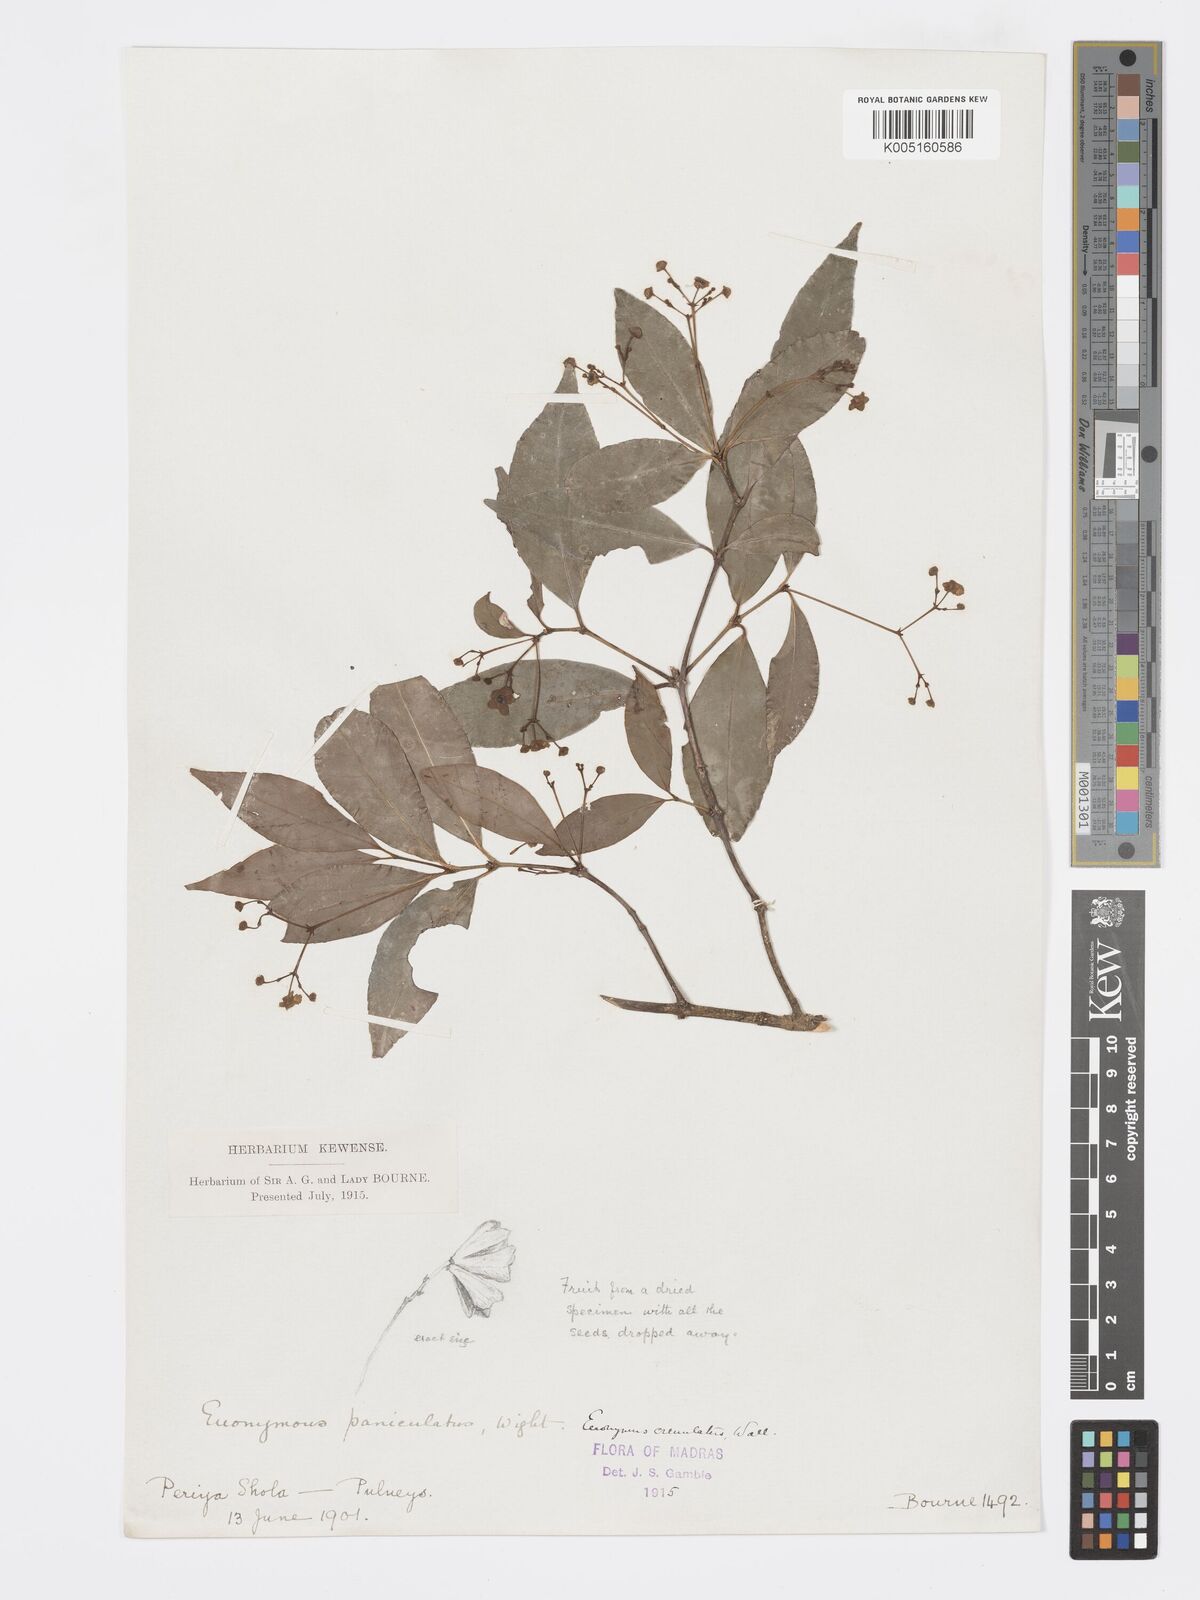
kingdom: Plantae
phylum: Tracheophyta
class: Magnoliopsida
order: Celastrales
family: Celastraceae
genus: Euonymus
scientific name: Euonymus crenulatus
